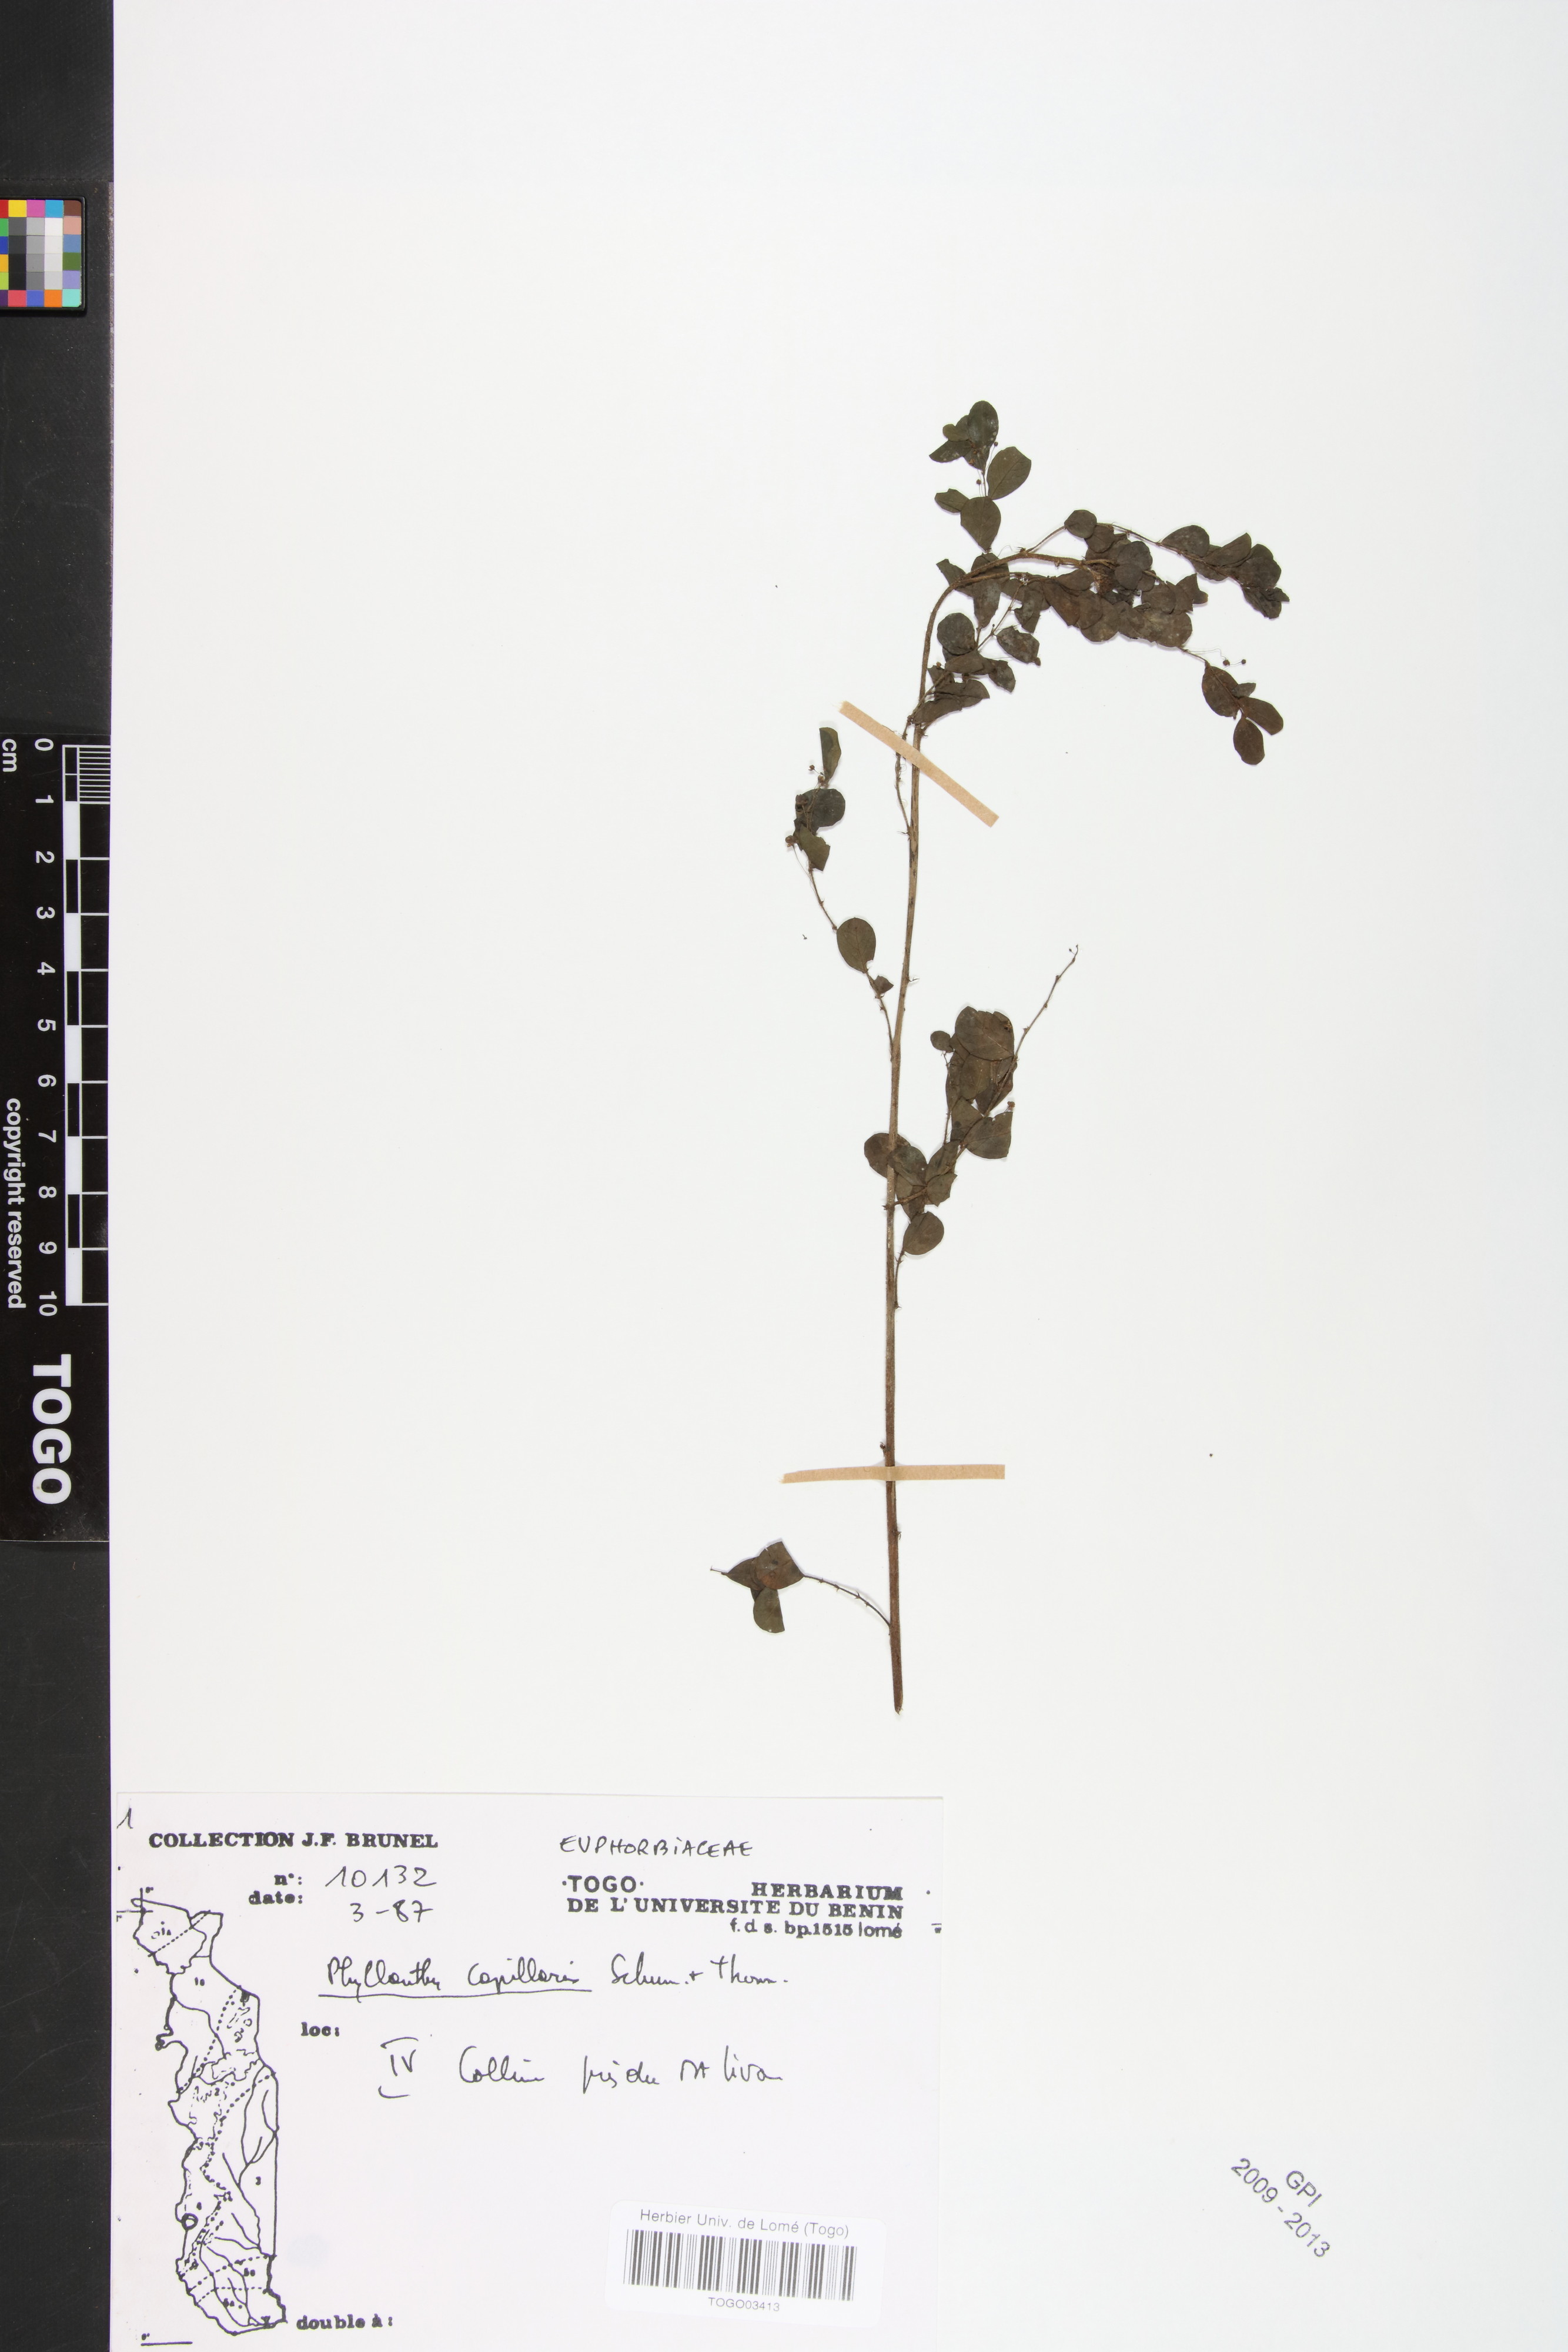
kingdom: Plantae
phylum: Tracheophyta
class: Magnoliopsida
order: Malpighiales
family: Phyllanthaceae
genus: Phyllanthus
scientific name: Phyllanthus nummulariifolius
